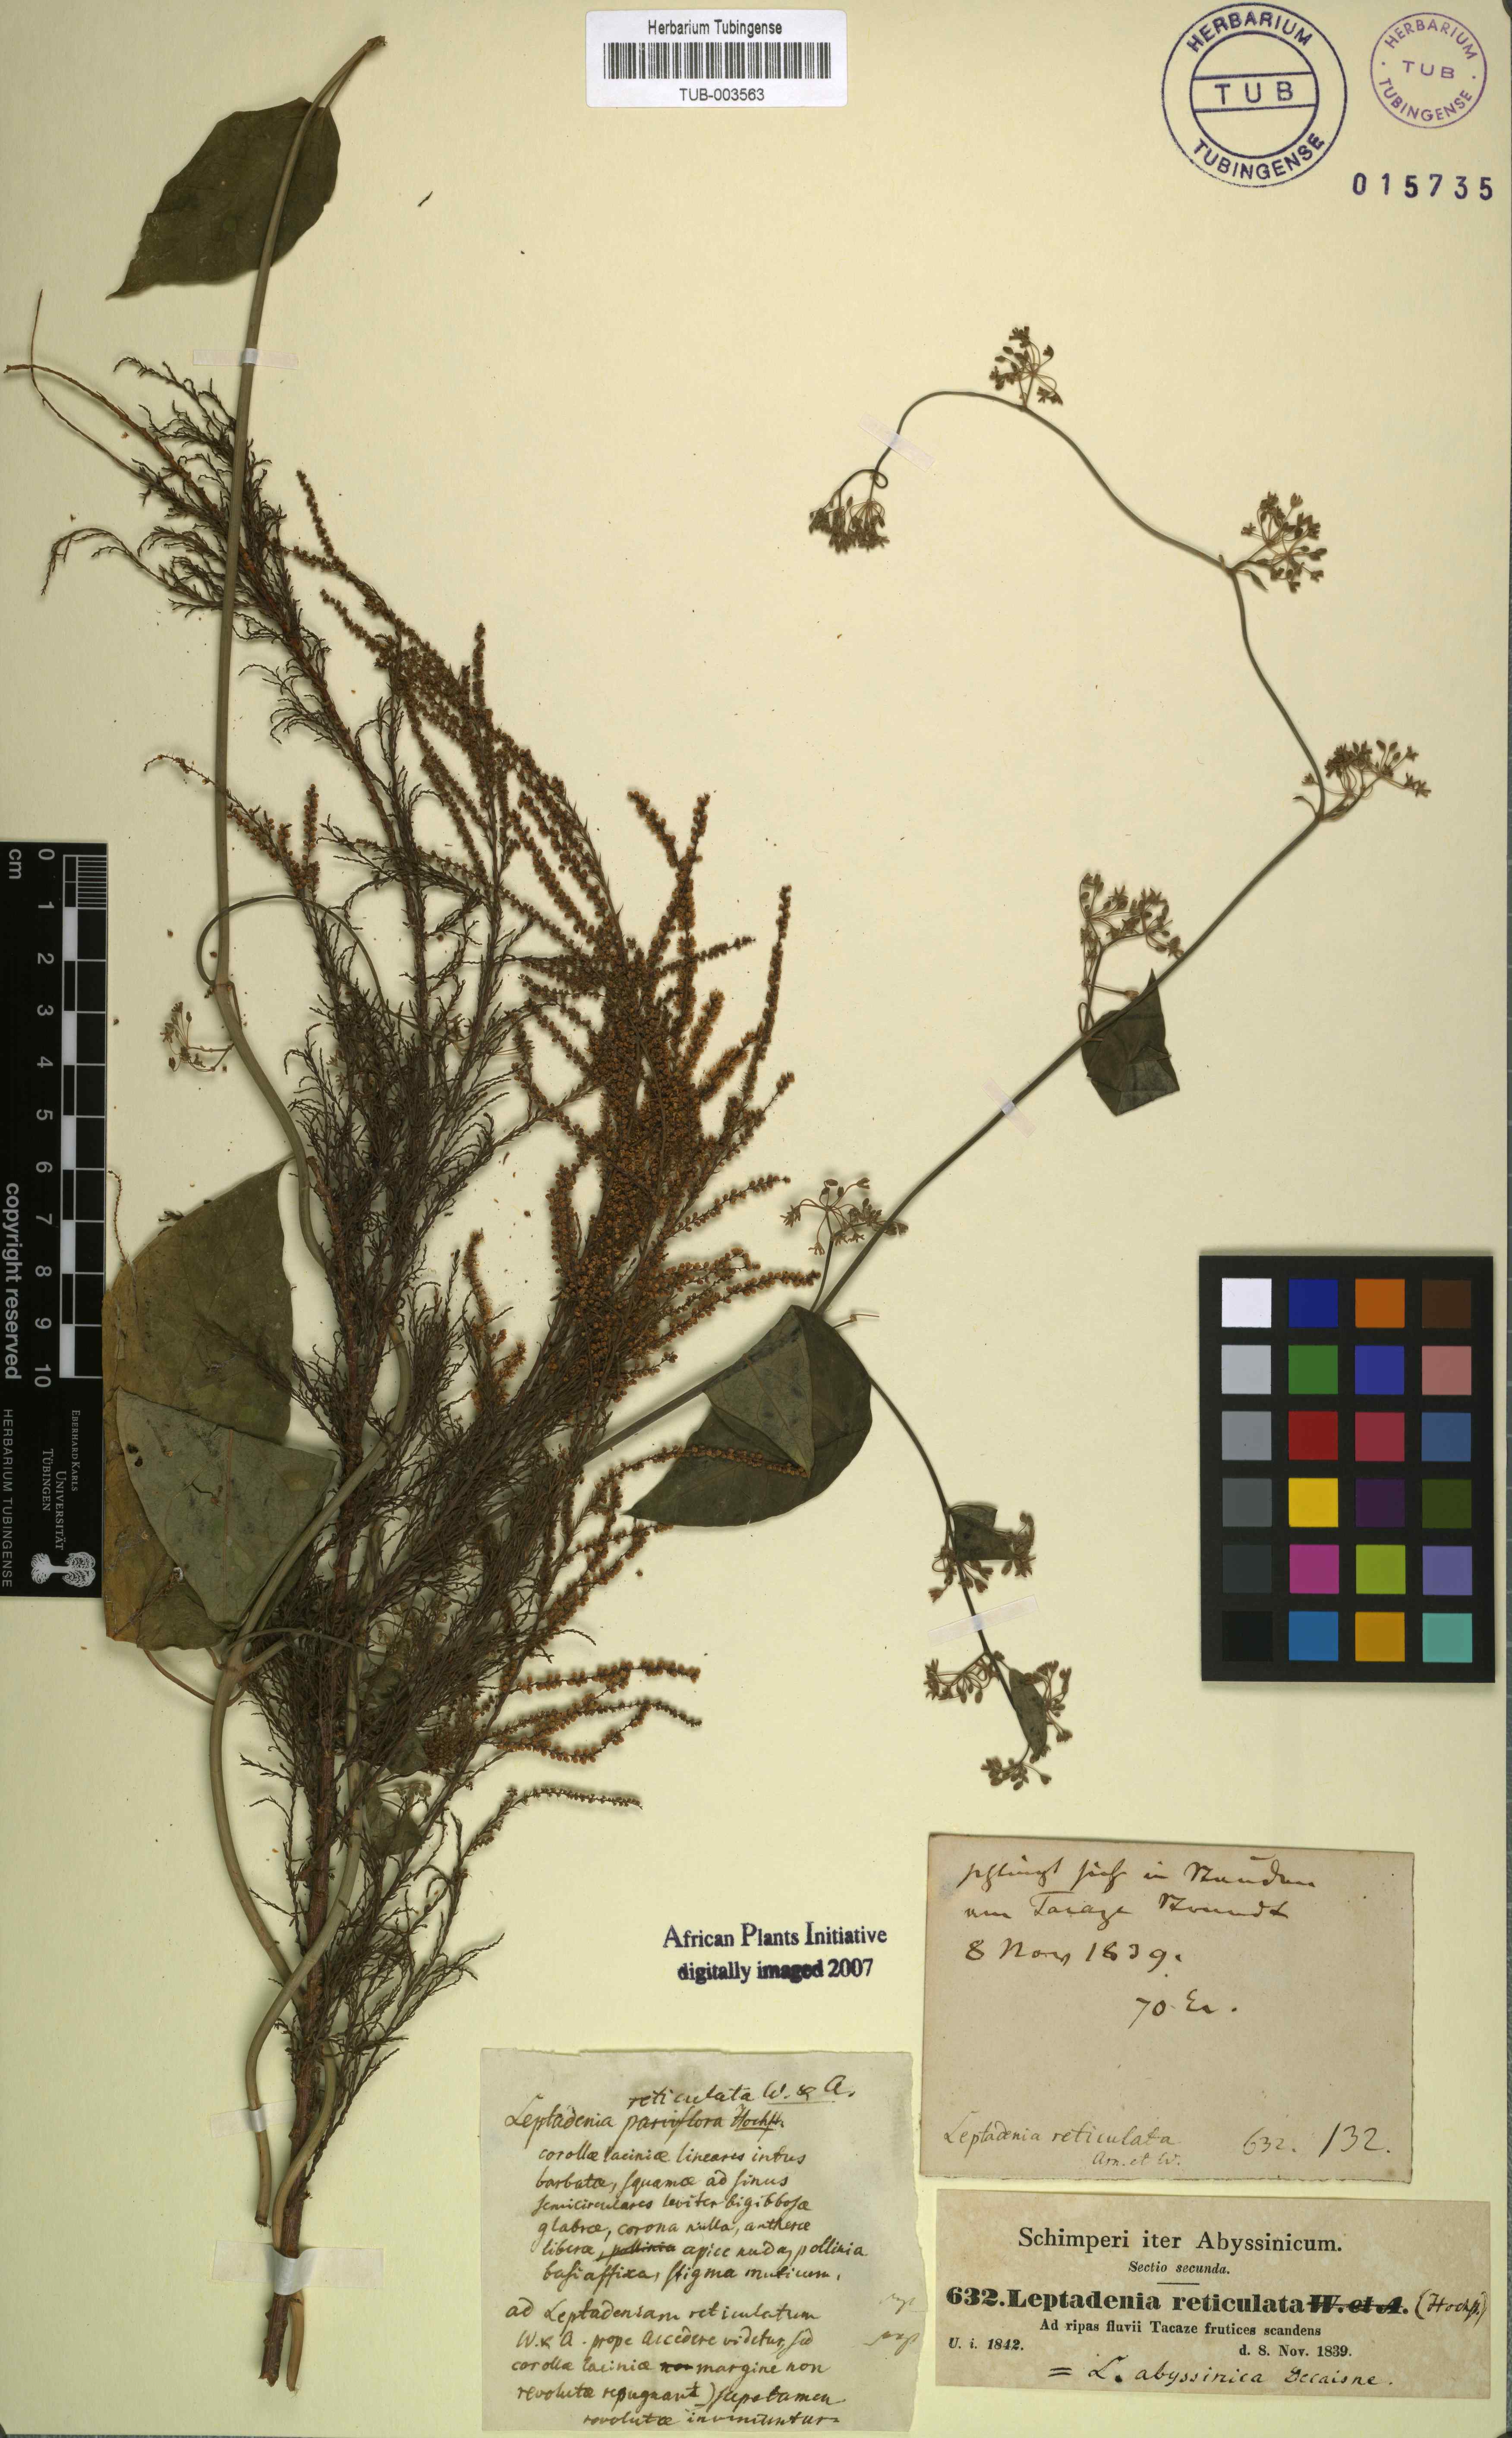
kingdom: Plantae
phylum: Tracheophyta
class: Magnoliopsida
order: Gentianales
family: Apocynaceae
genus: Leptadenia
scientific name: Leptadenia arborea
